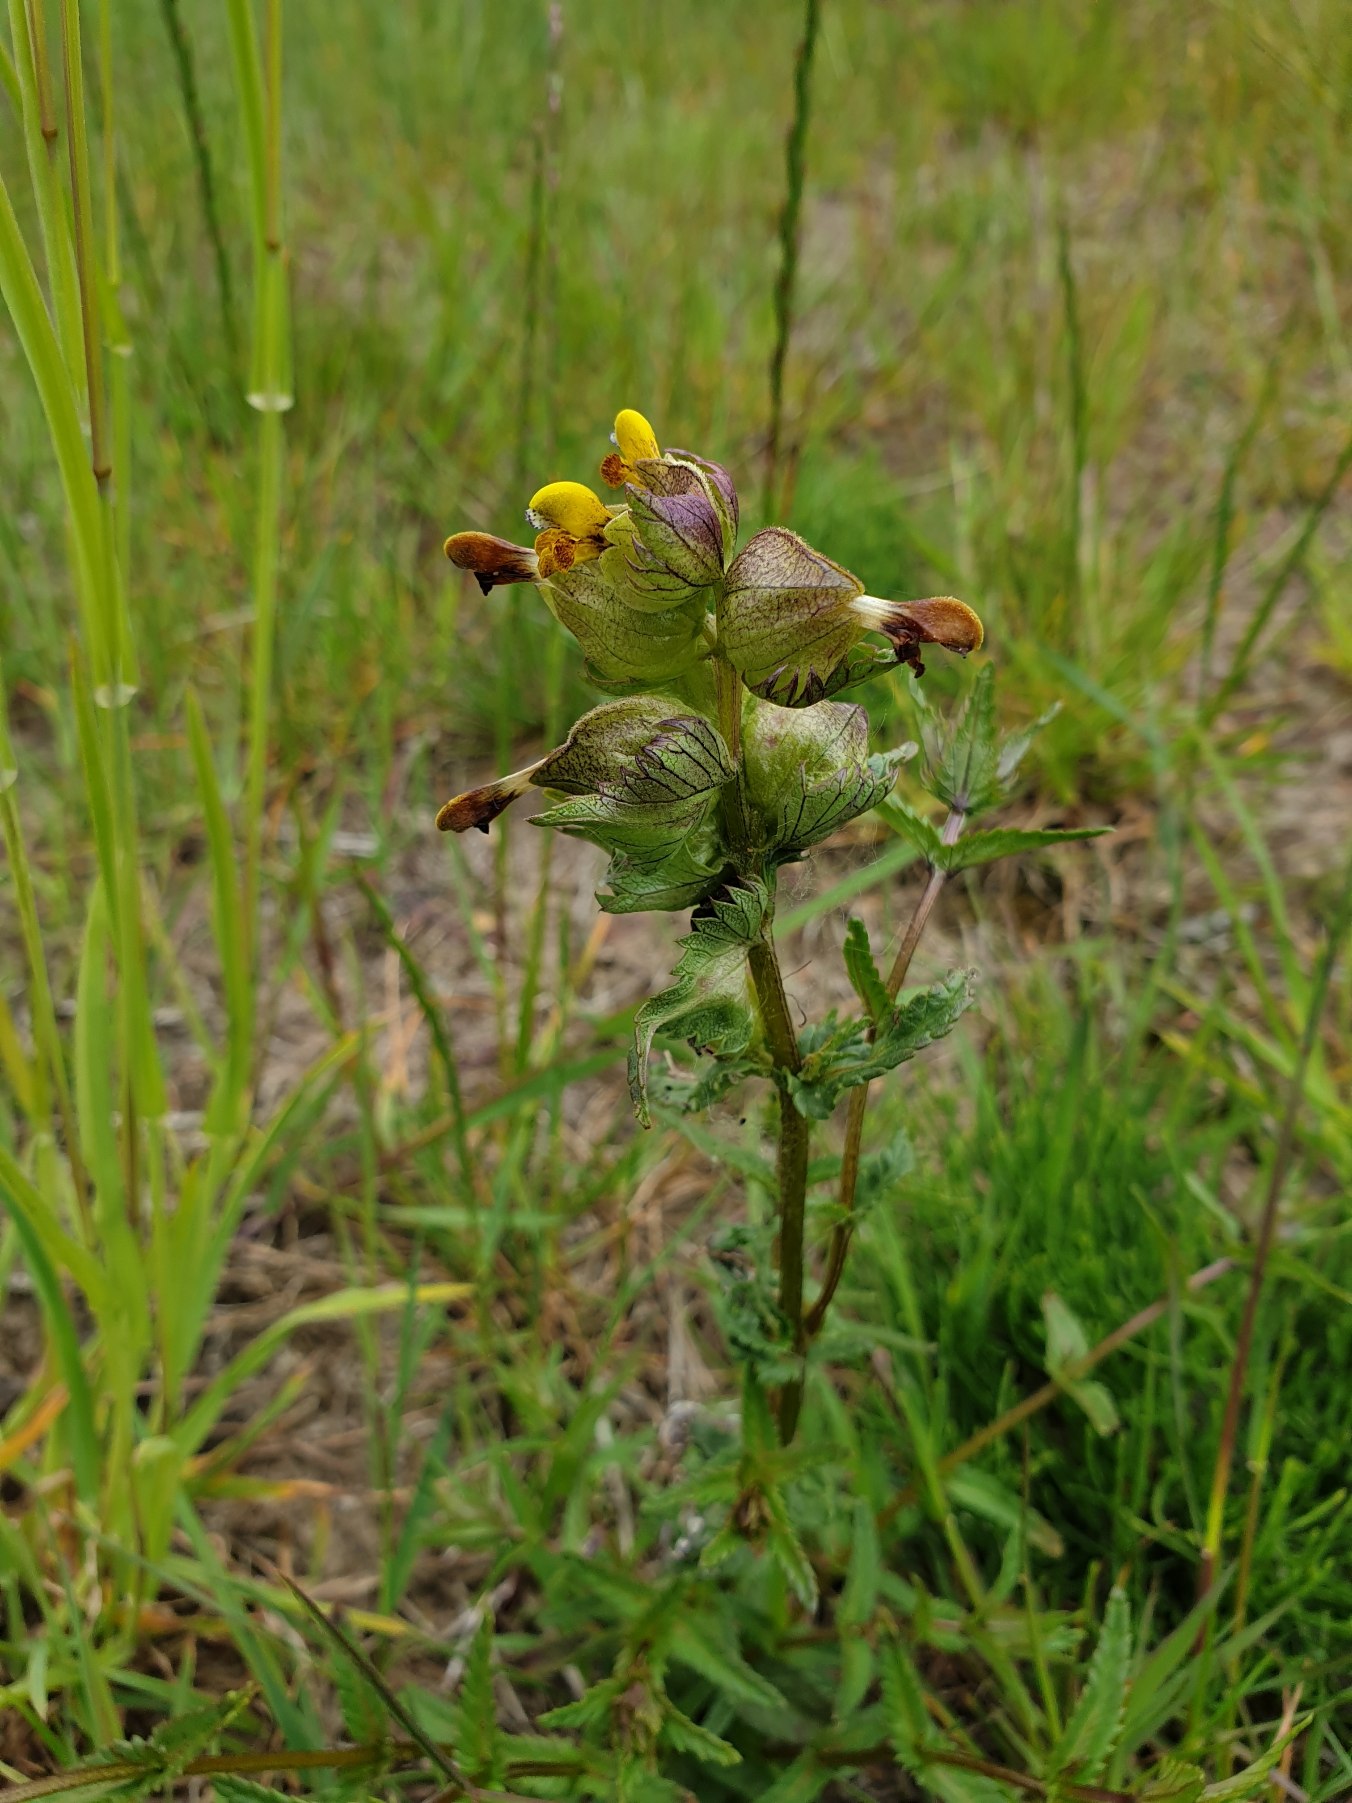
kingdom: Plantae
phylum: Tracheophyta
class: Magnoliopsida
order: Lamiales
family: Orobanchaceae
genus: Rhinanthus
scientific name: Rhinanthus minor
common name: Liden skjaller
